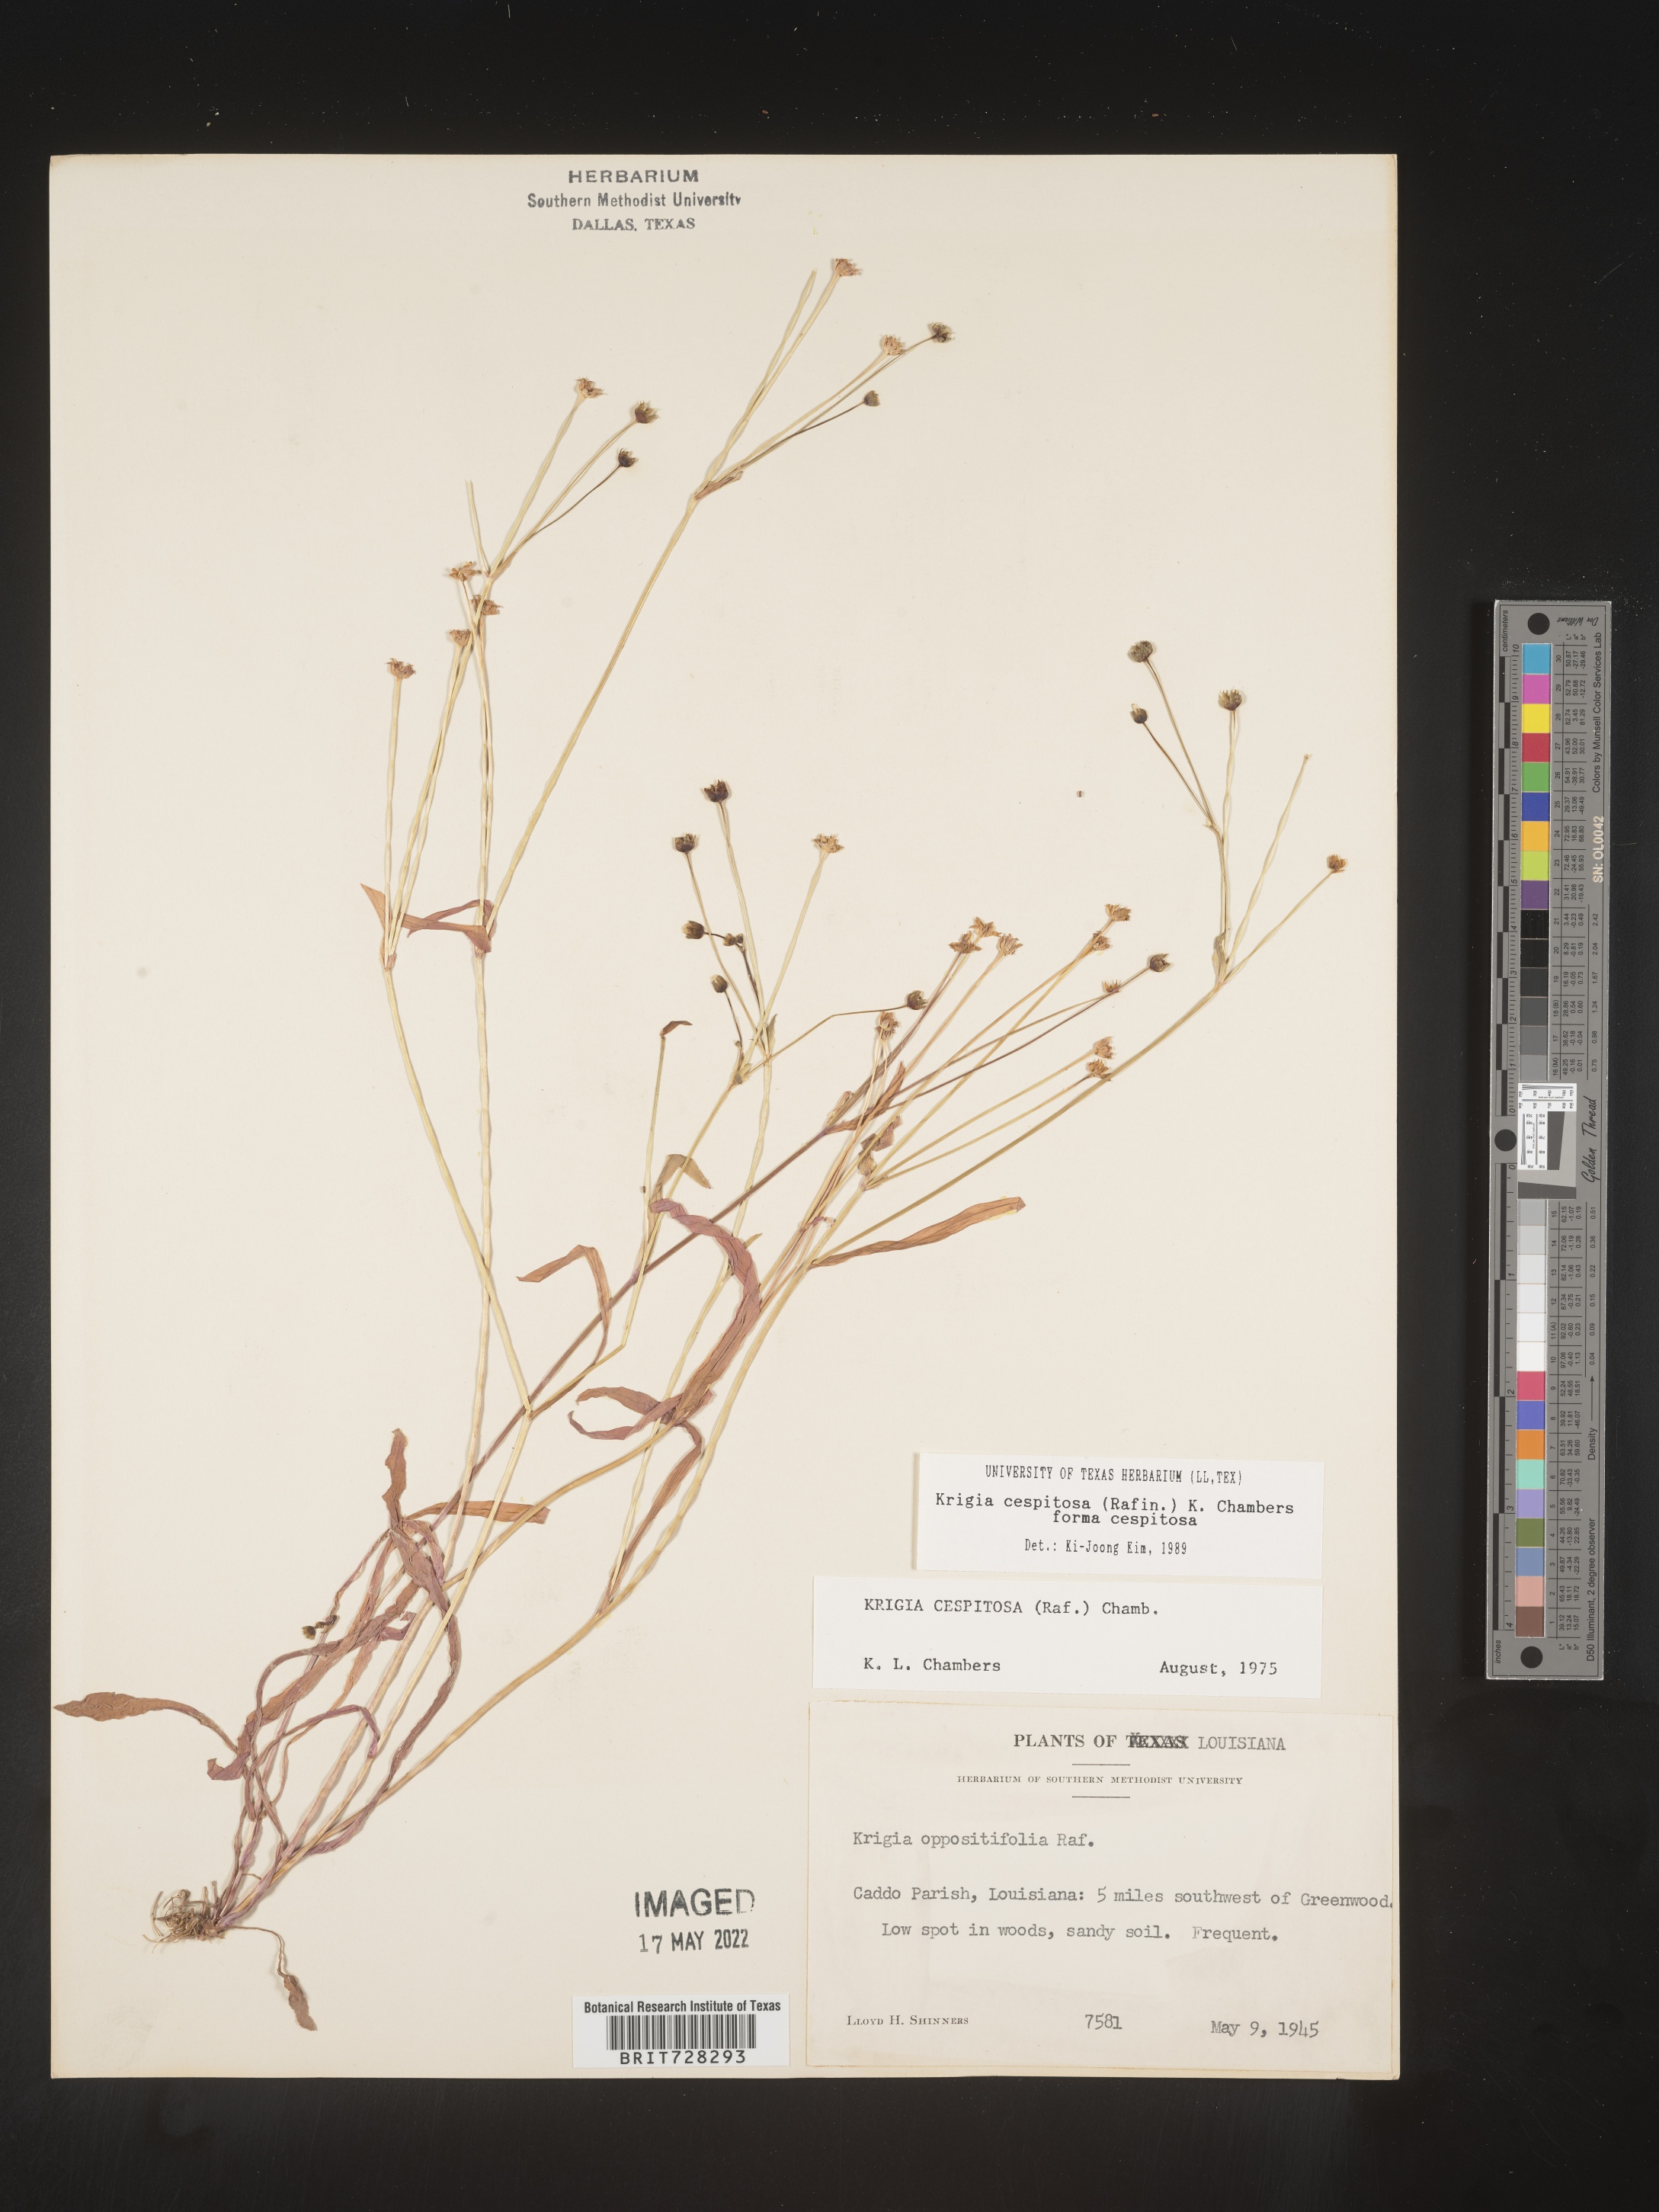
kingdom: Plantae
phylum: Tracheophyta
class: Magnoliopsida
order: Asterales
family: Asteraceae
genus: Krigia
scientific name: Krigia caespitosa
